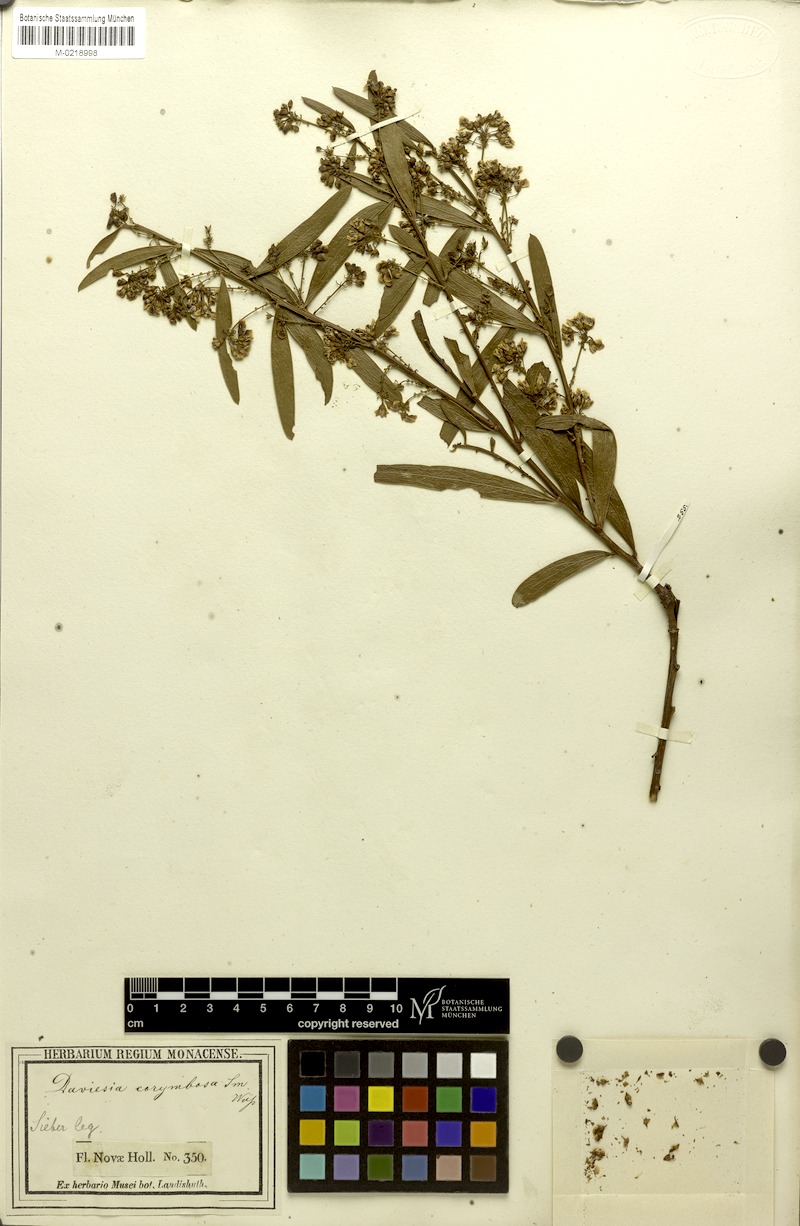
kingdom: Plantae
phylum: Tracheophyta
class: Magnoliopsida
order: Fabales
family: Fabaceae
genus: Daviesia
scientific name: Daviesia corymbosa
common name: Narrow-leaf bitter-pea
